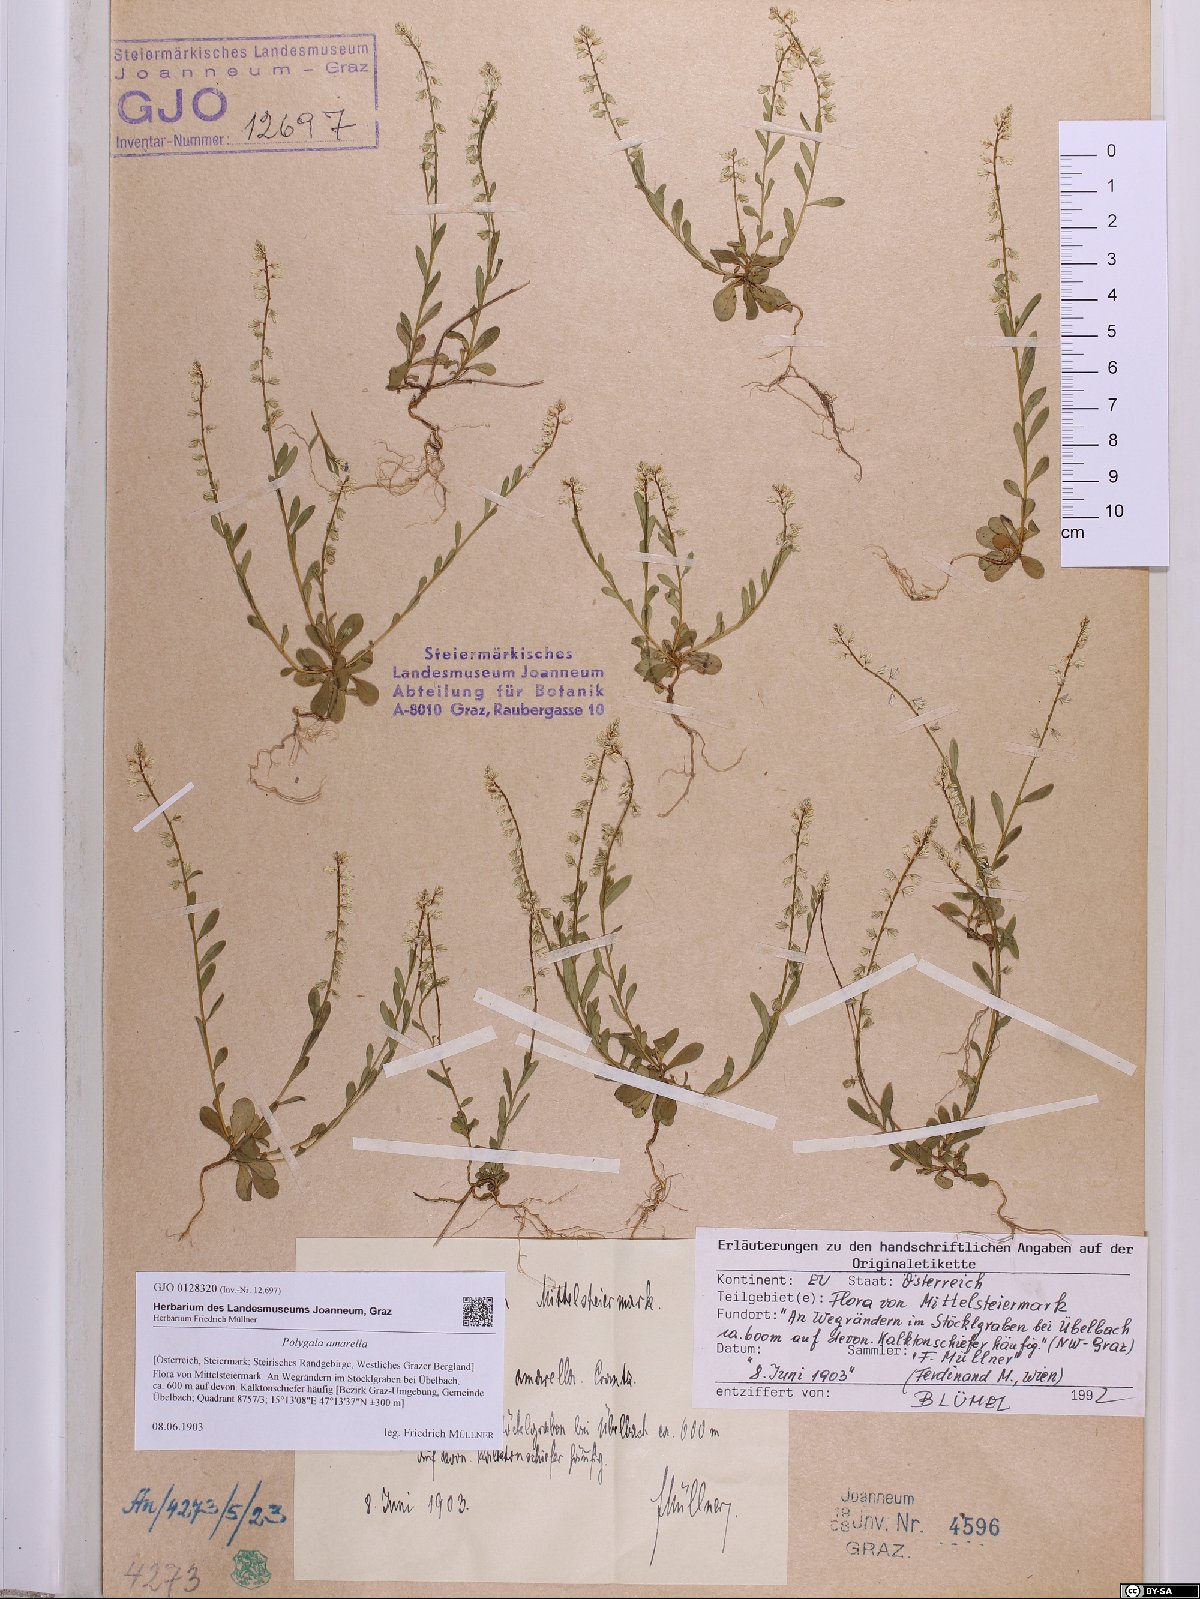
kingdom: Plantae
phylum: Tracheophyta
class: Magnoliopsida
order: Fabales
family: Polygalaceae
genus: Polygala
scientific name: Polygala amarella
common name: Dwarf milkwort
